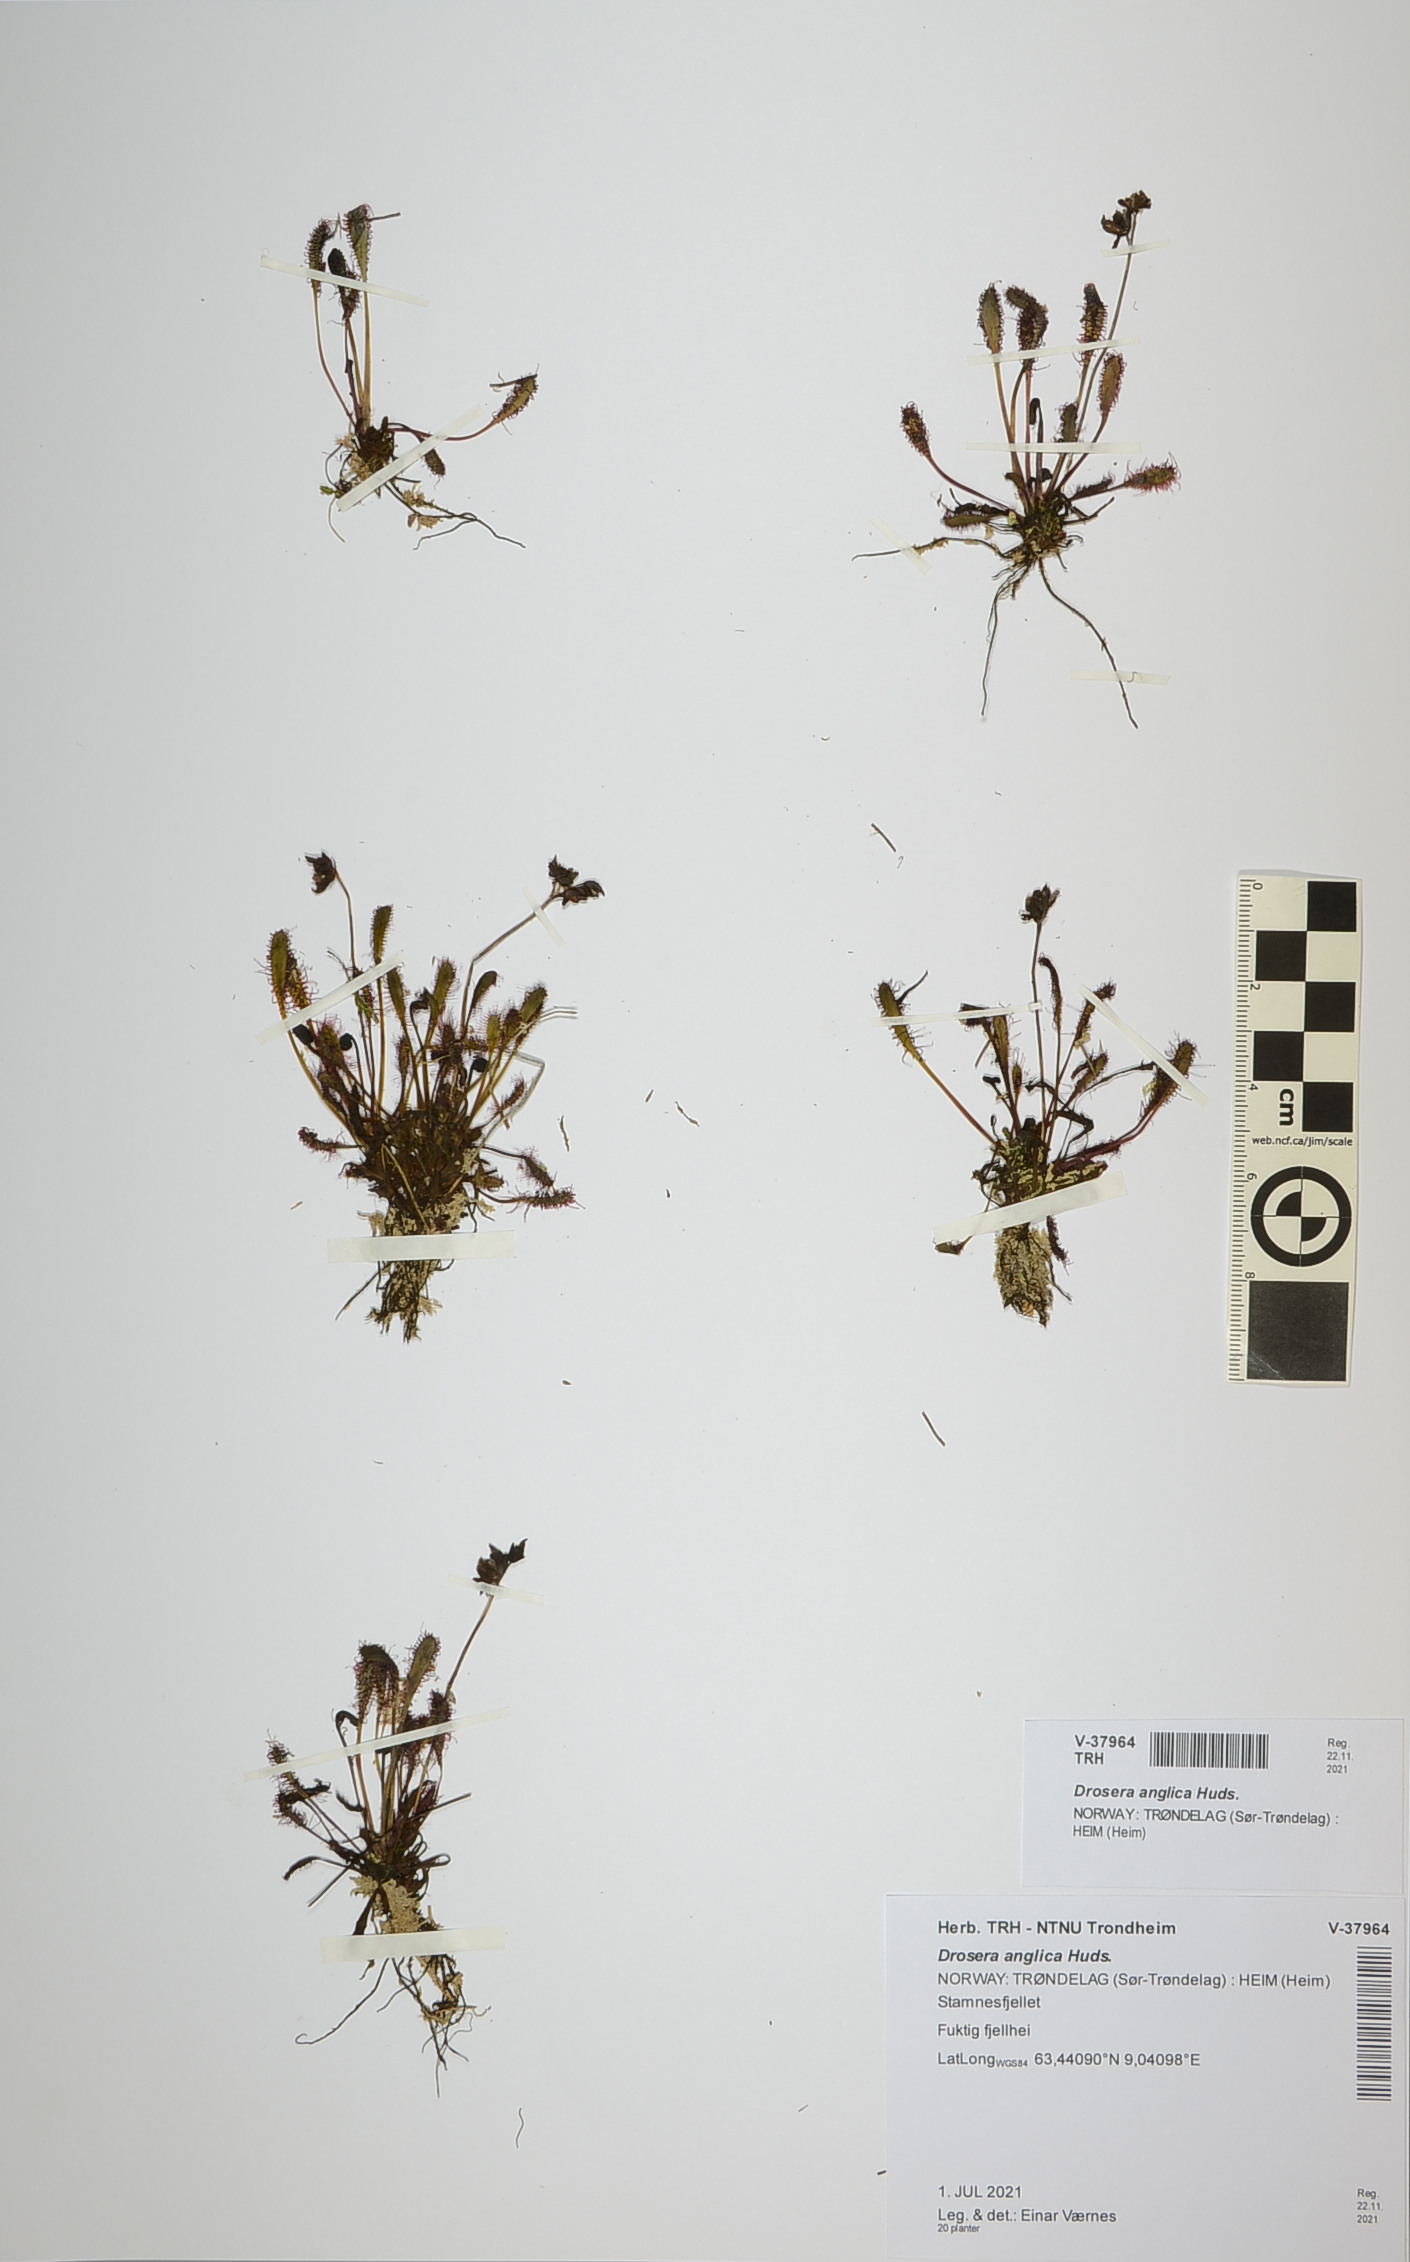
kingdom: Plantae
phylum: Tracheophyta
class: Magnoliopsida
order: Caryophyllales
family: Droseraceae
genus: Drosera
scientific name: Drosera anglica
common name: Great sundew
